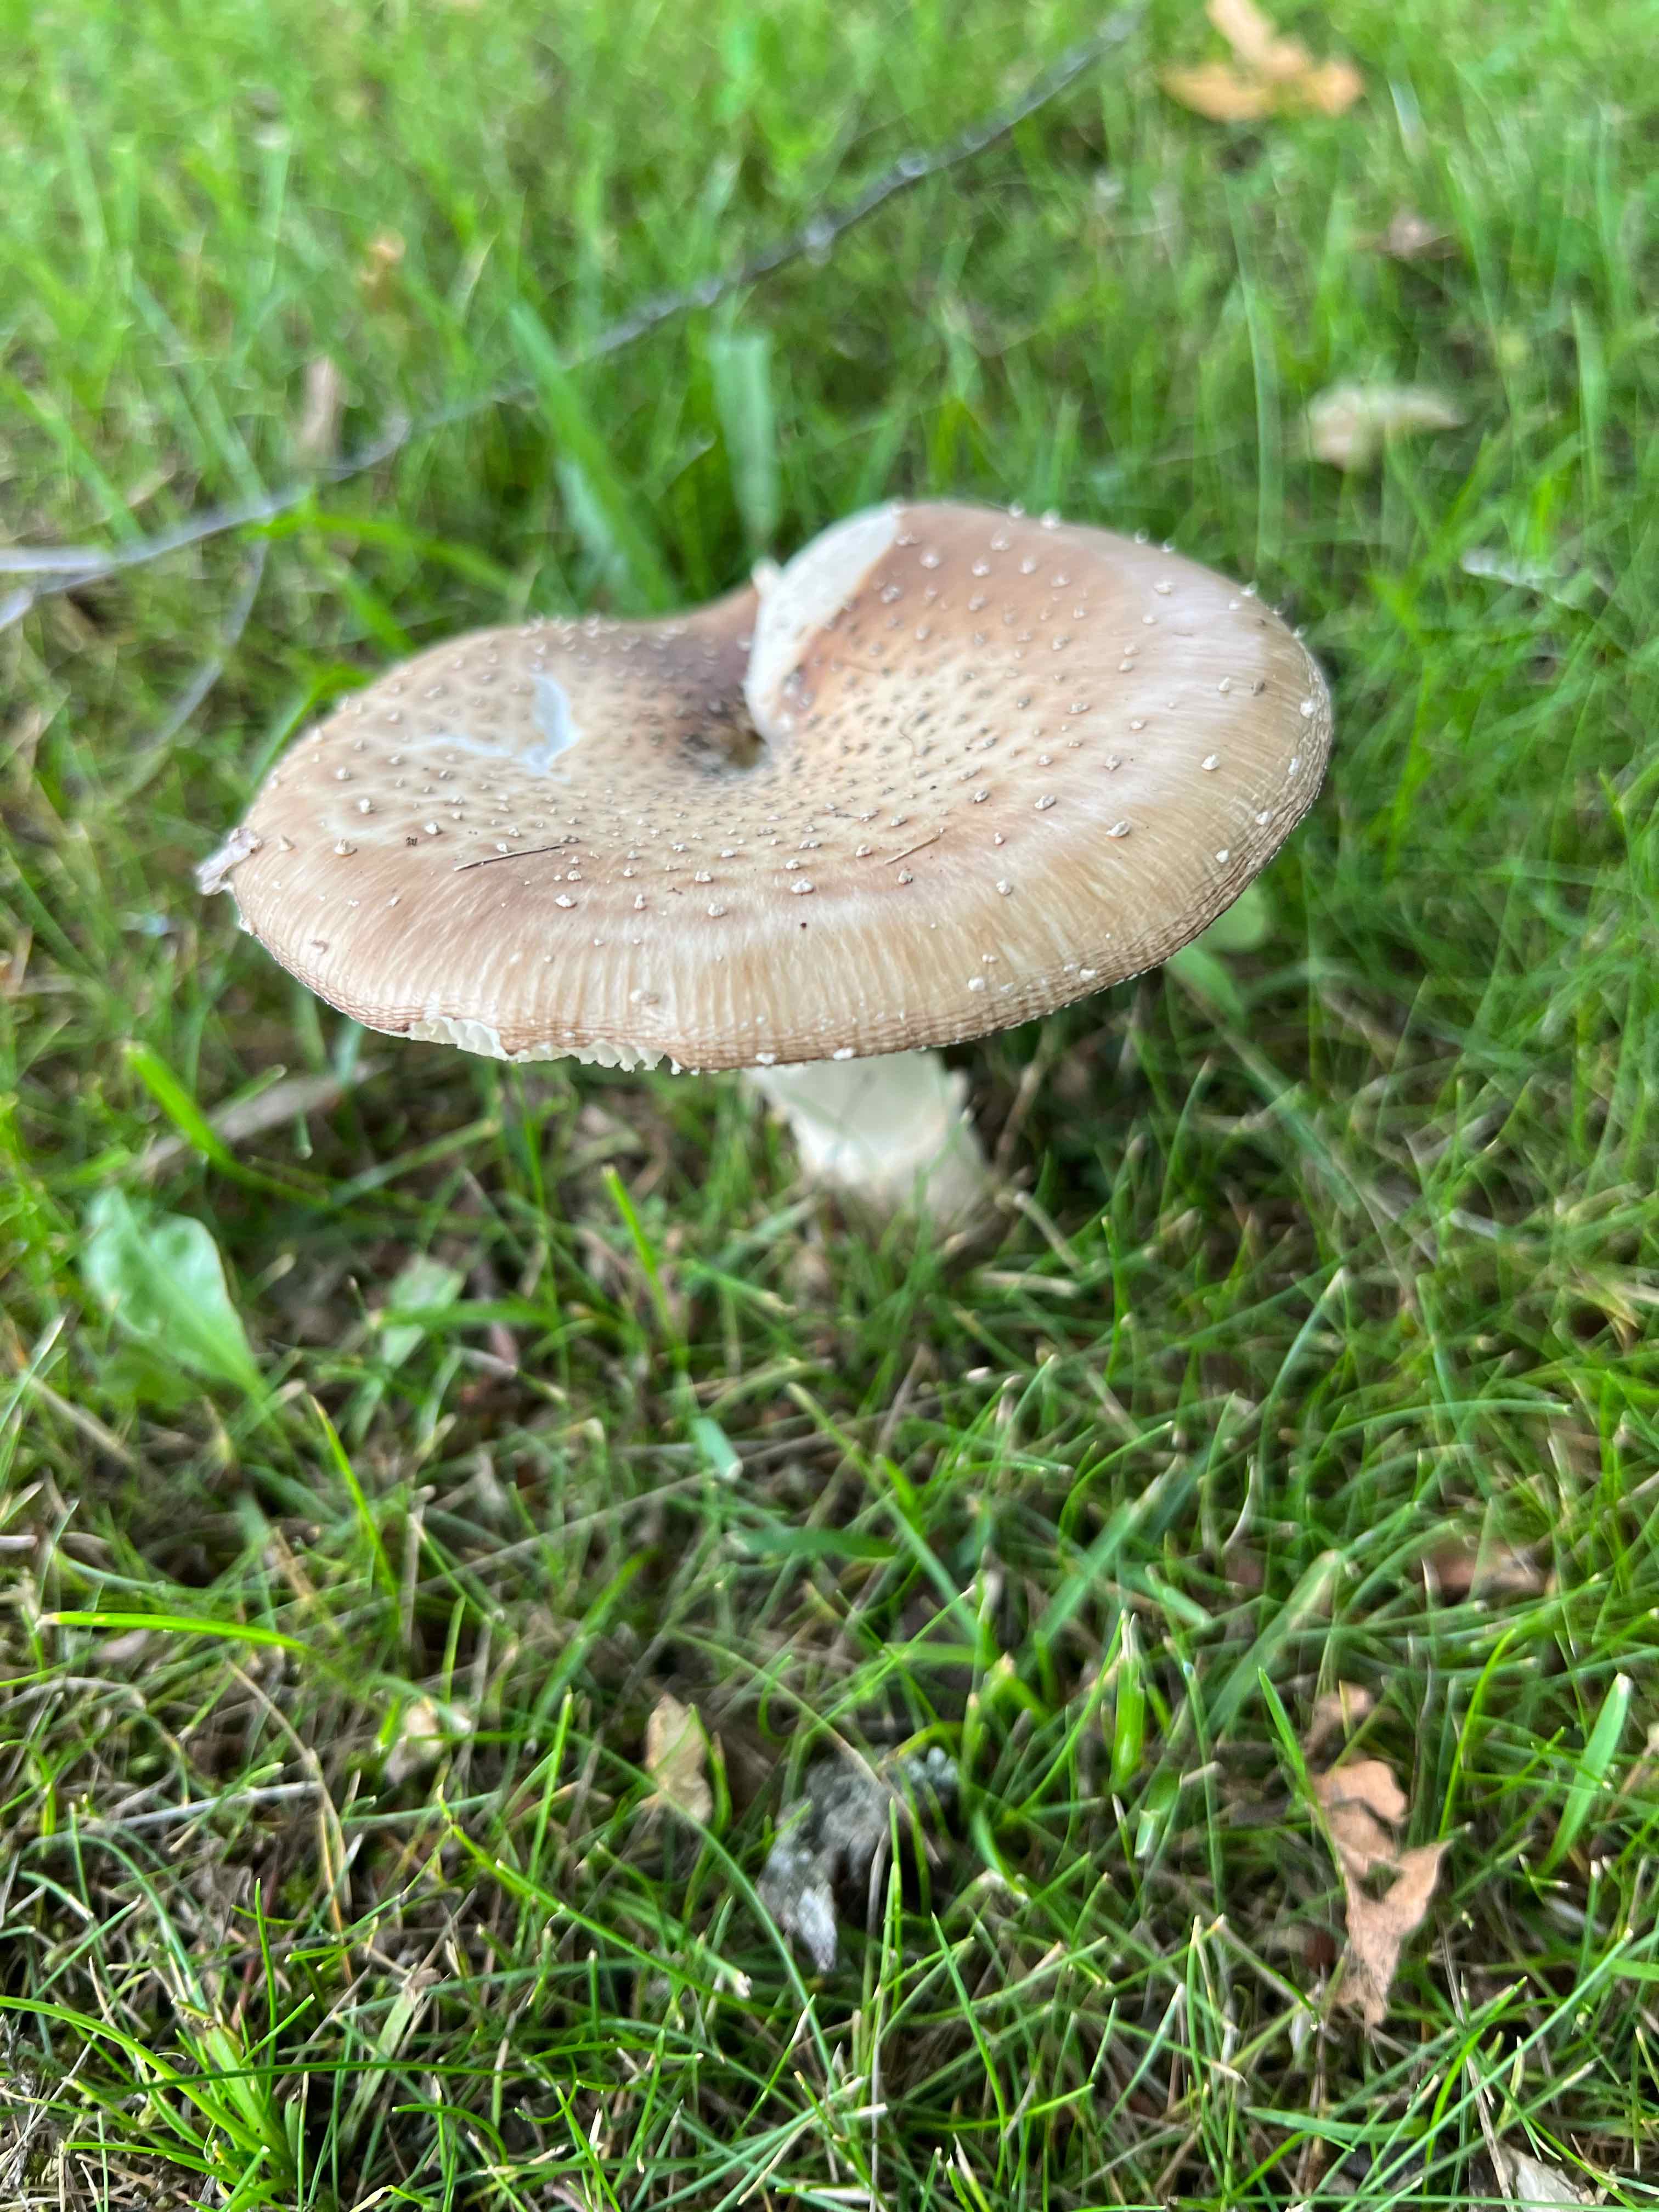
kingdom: Fungi
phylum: Basidiomycota
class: Agaricomycetes
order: Agaricales
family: Amanitaceae
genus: Amanita
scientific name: Amanita pantherina
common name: panter-fluesvamp
